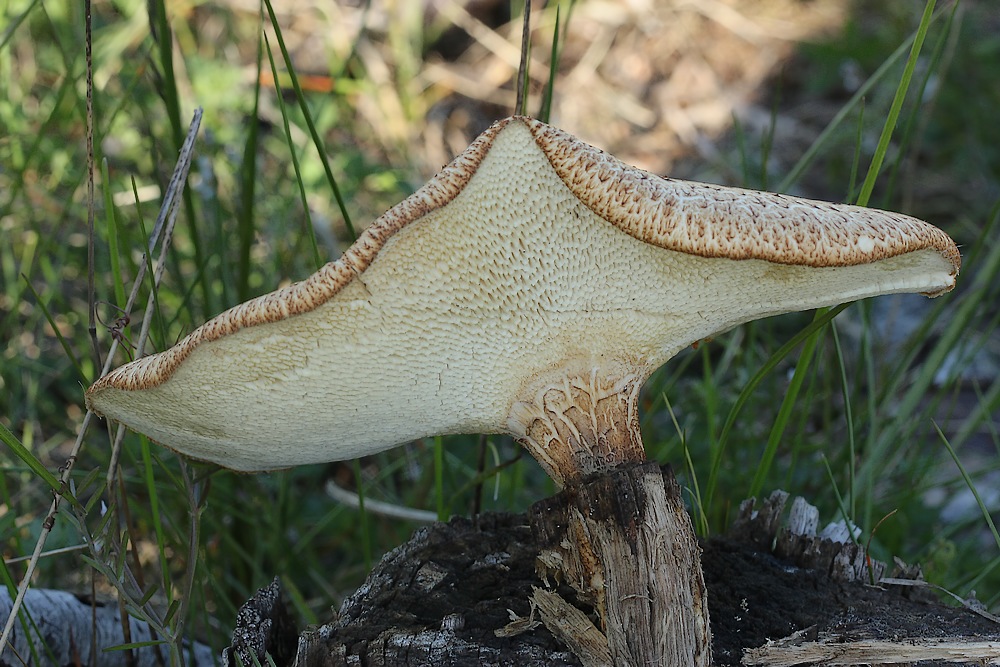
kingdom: Fungi
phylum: Basidiomycota
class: Agaricomycetes
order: Polyporales
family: Polyporaceae
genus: Cerioporus
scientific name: Cerioporus squamosus
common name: skællet stilkporesvamp
